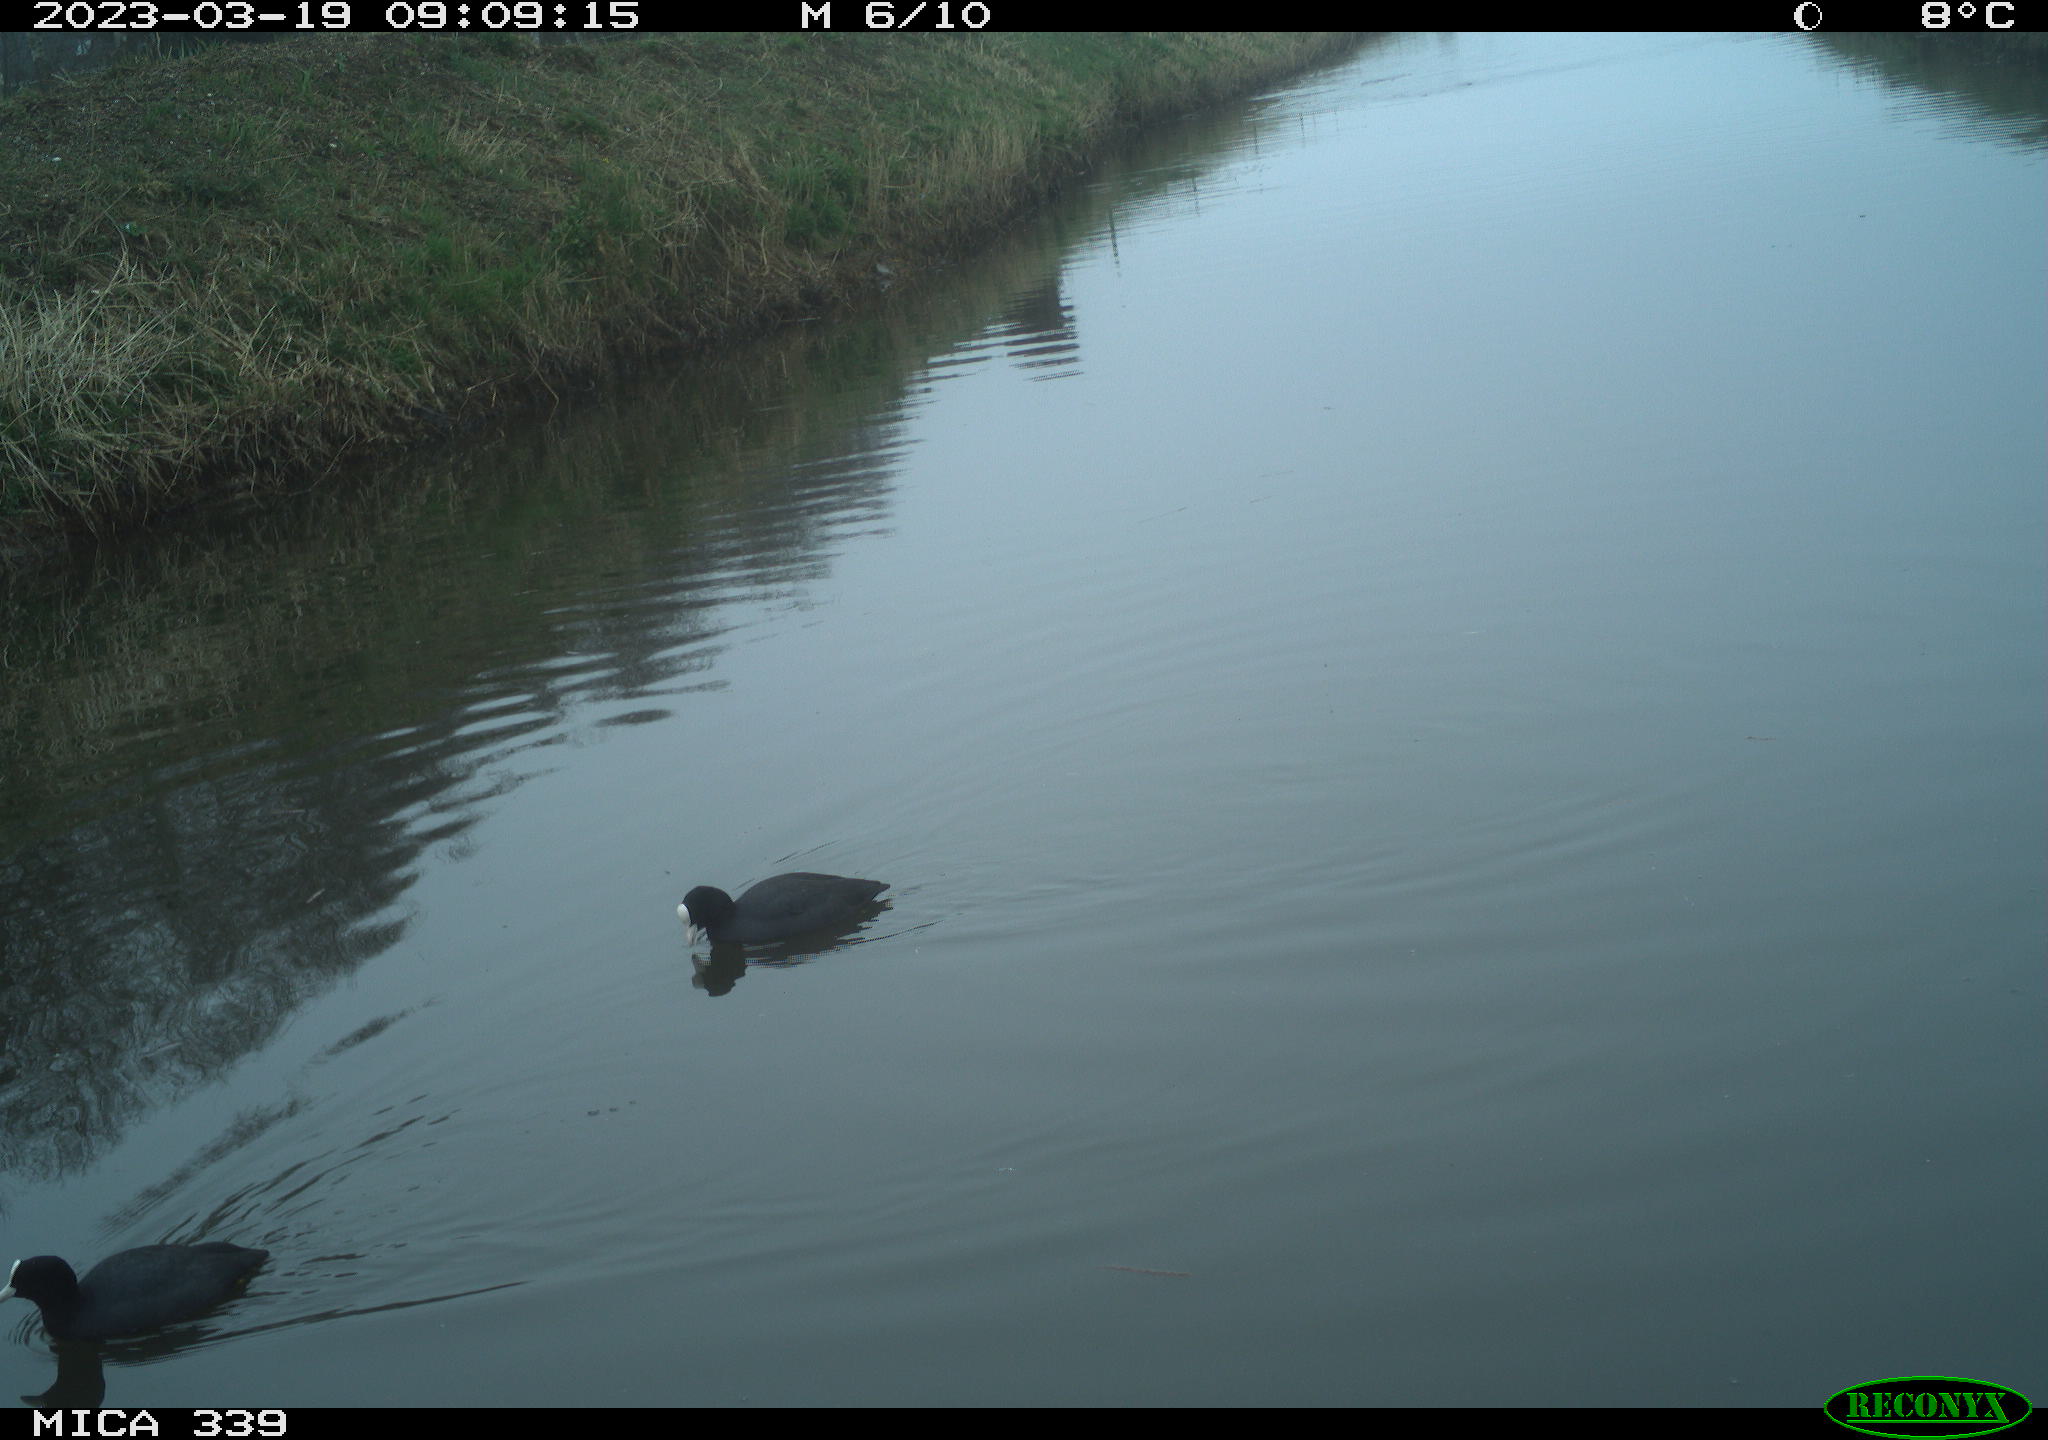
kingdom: Animalia
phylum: Chordata
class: Aves
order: Gruiformes
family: Rallidae
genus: Fulica
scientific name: Fulica atra
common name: Eurasian coot
